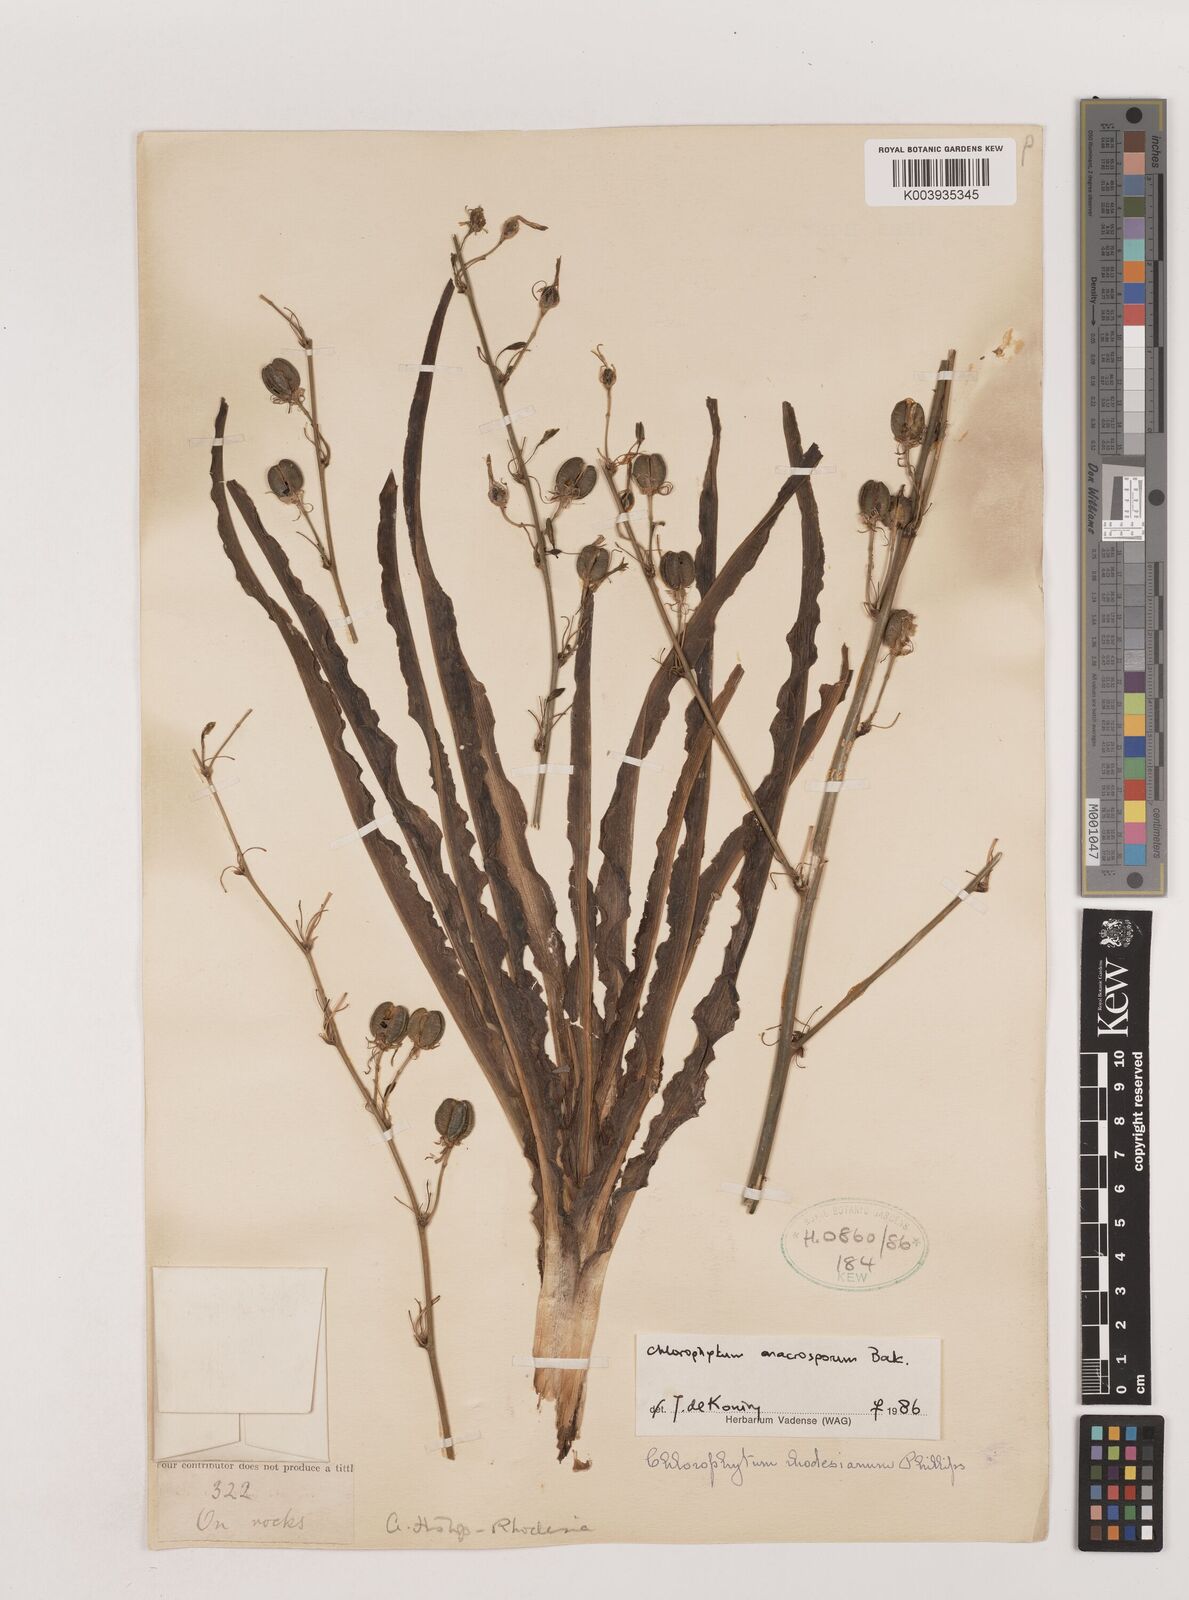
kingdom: Plantae
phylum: Tracheophyta
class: Liliopsida
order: Asparagales
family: Asparagaceae
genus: Chlorophytum
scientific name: Chlorophytum macrosporum
